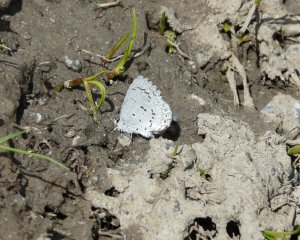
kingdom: Animalia
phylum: Arthropoda
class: Insecta
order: Lepidoptera
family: Lycaenidae
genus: Celastrina
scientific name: Celastrina lucia
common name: Northern Spring Azure
